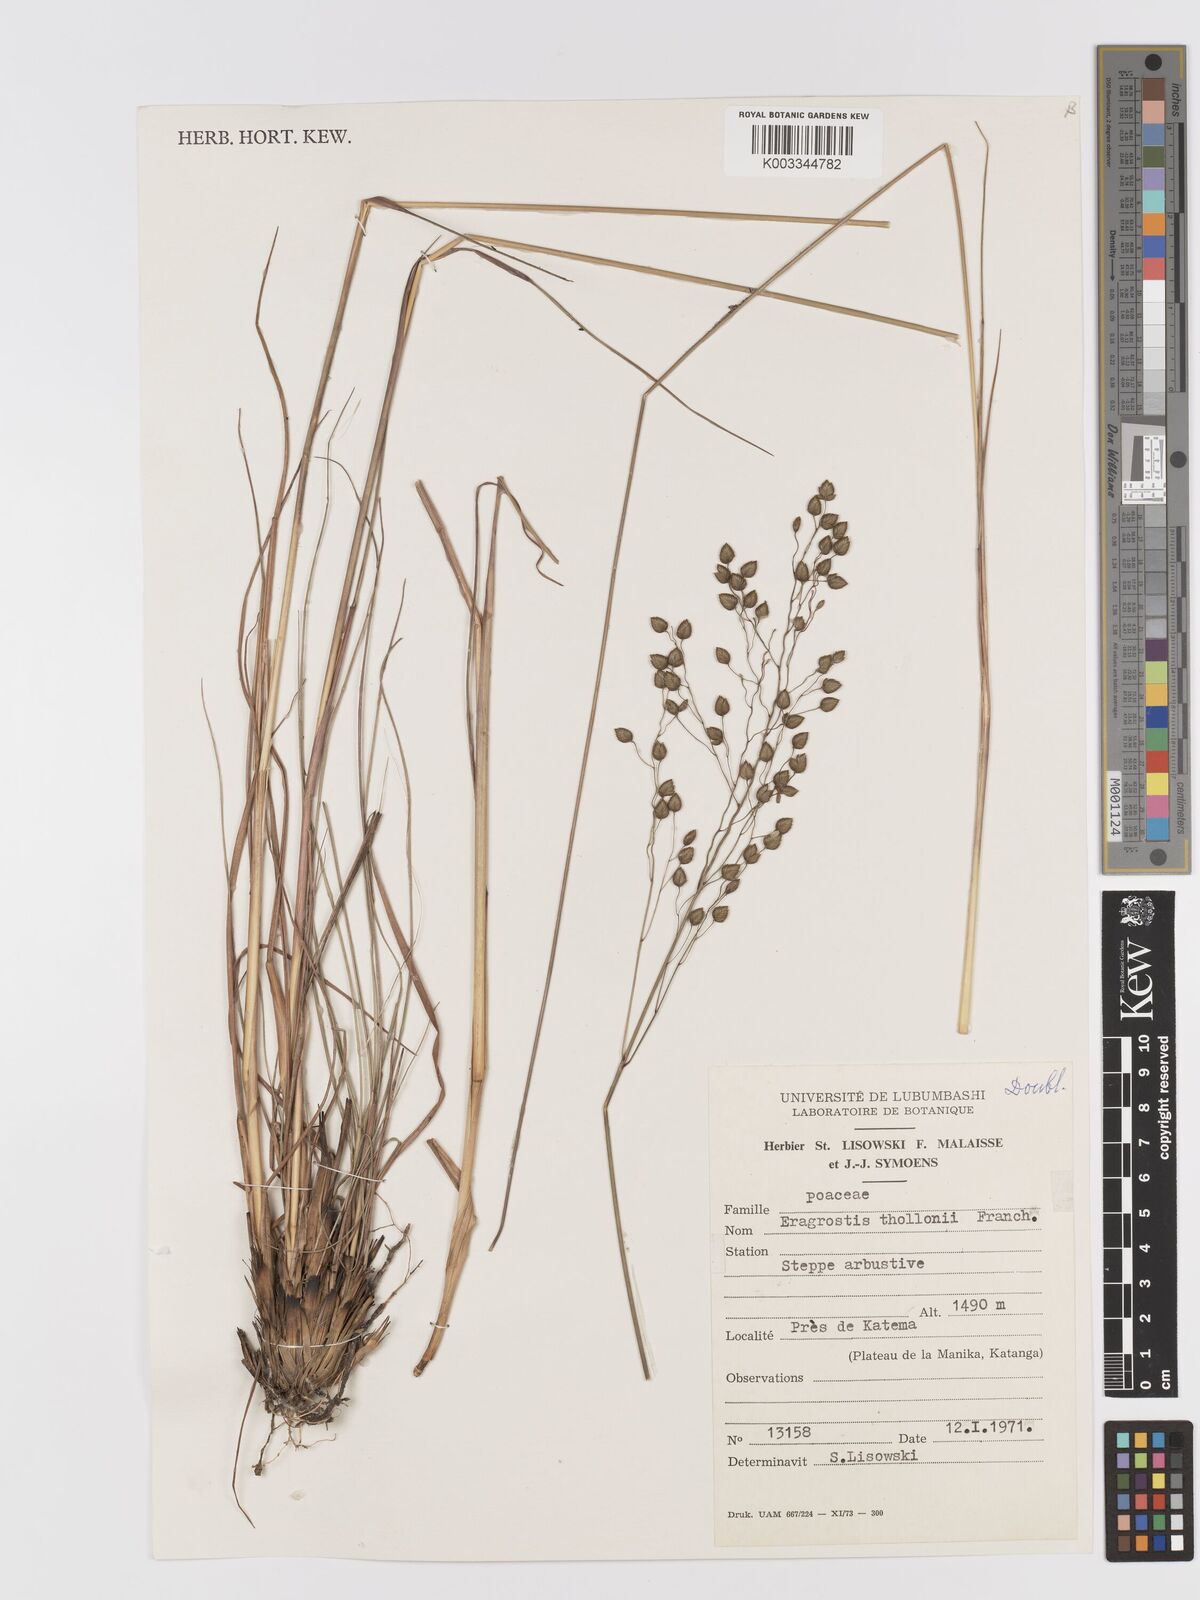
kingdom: Plantae
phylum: Tracheophyta
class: Liliopsida
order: Poales
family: Poaceae
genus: Eragrostis
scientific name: Eragrostis thollonii
